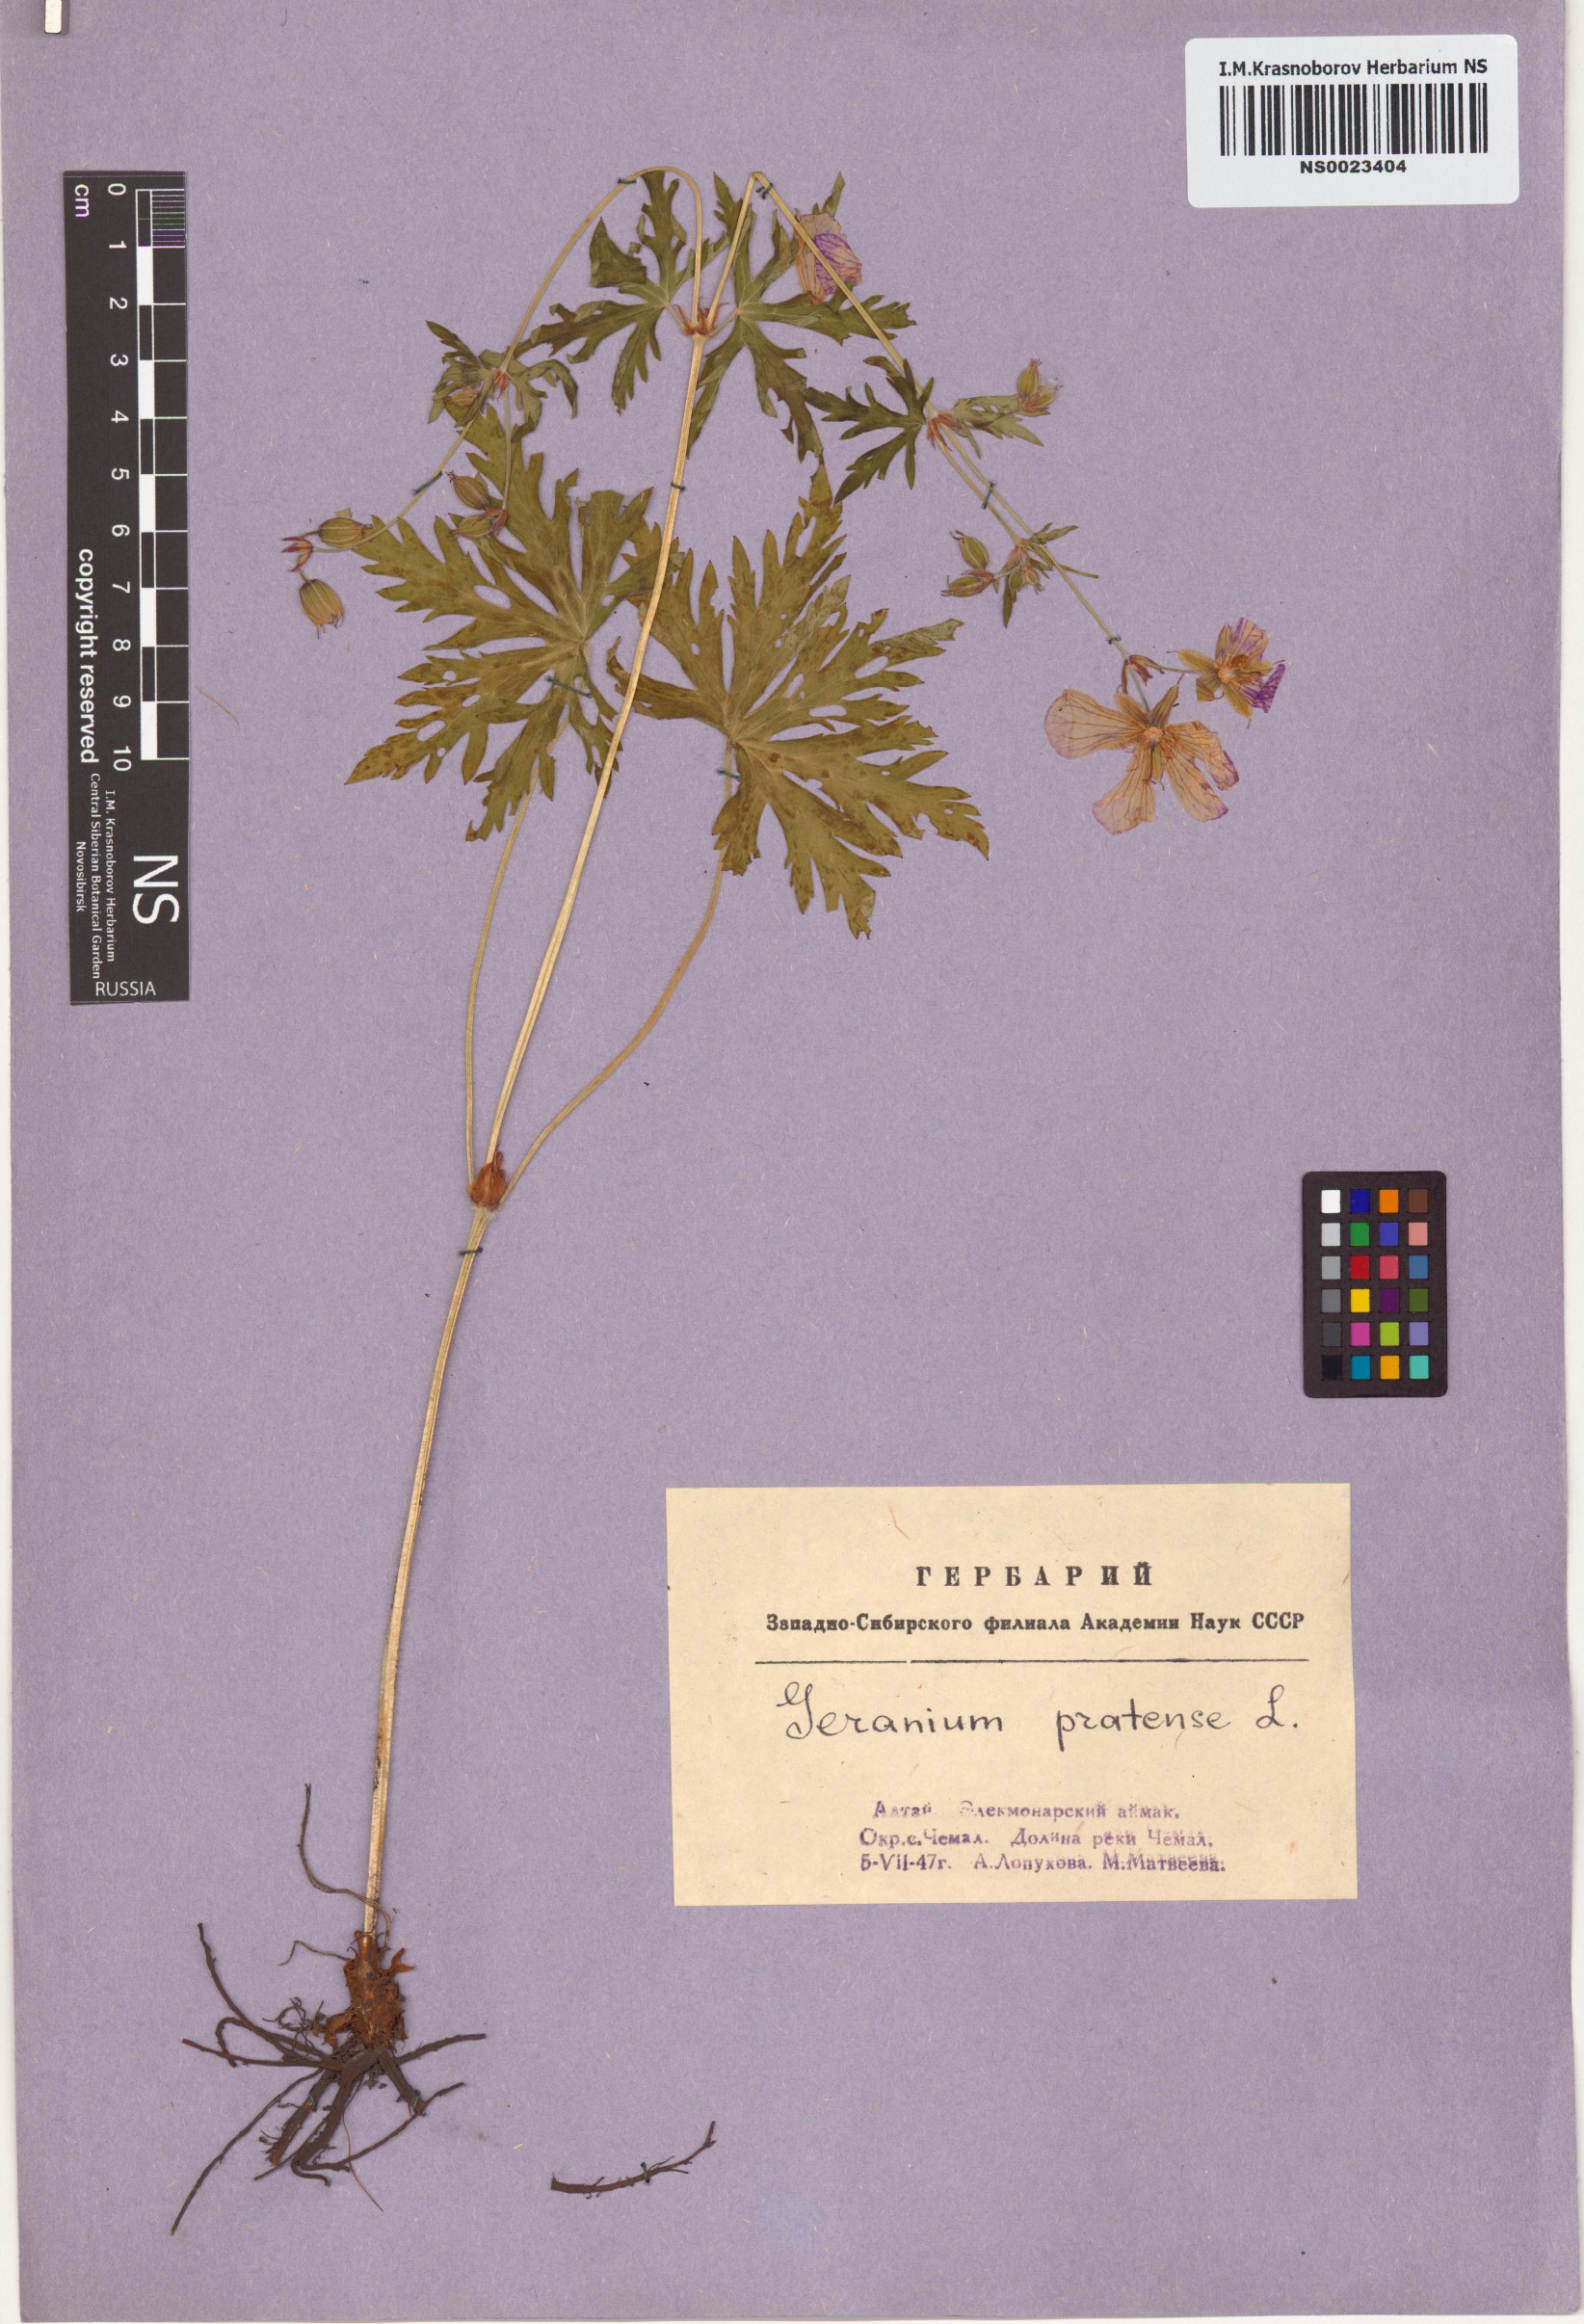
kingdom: Plantae
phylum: Tracheophyta
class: Magnoliopsida
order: Geraniales
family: Geraniaceae
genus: Geranium
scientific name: Geranium pratense
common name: Meadow crane's-bill
